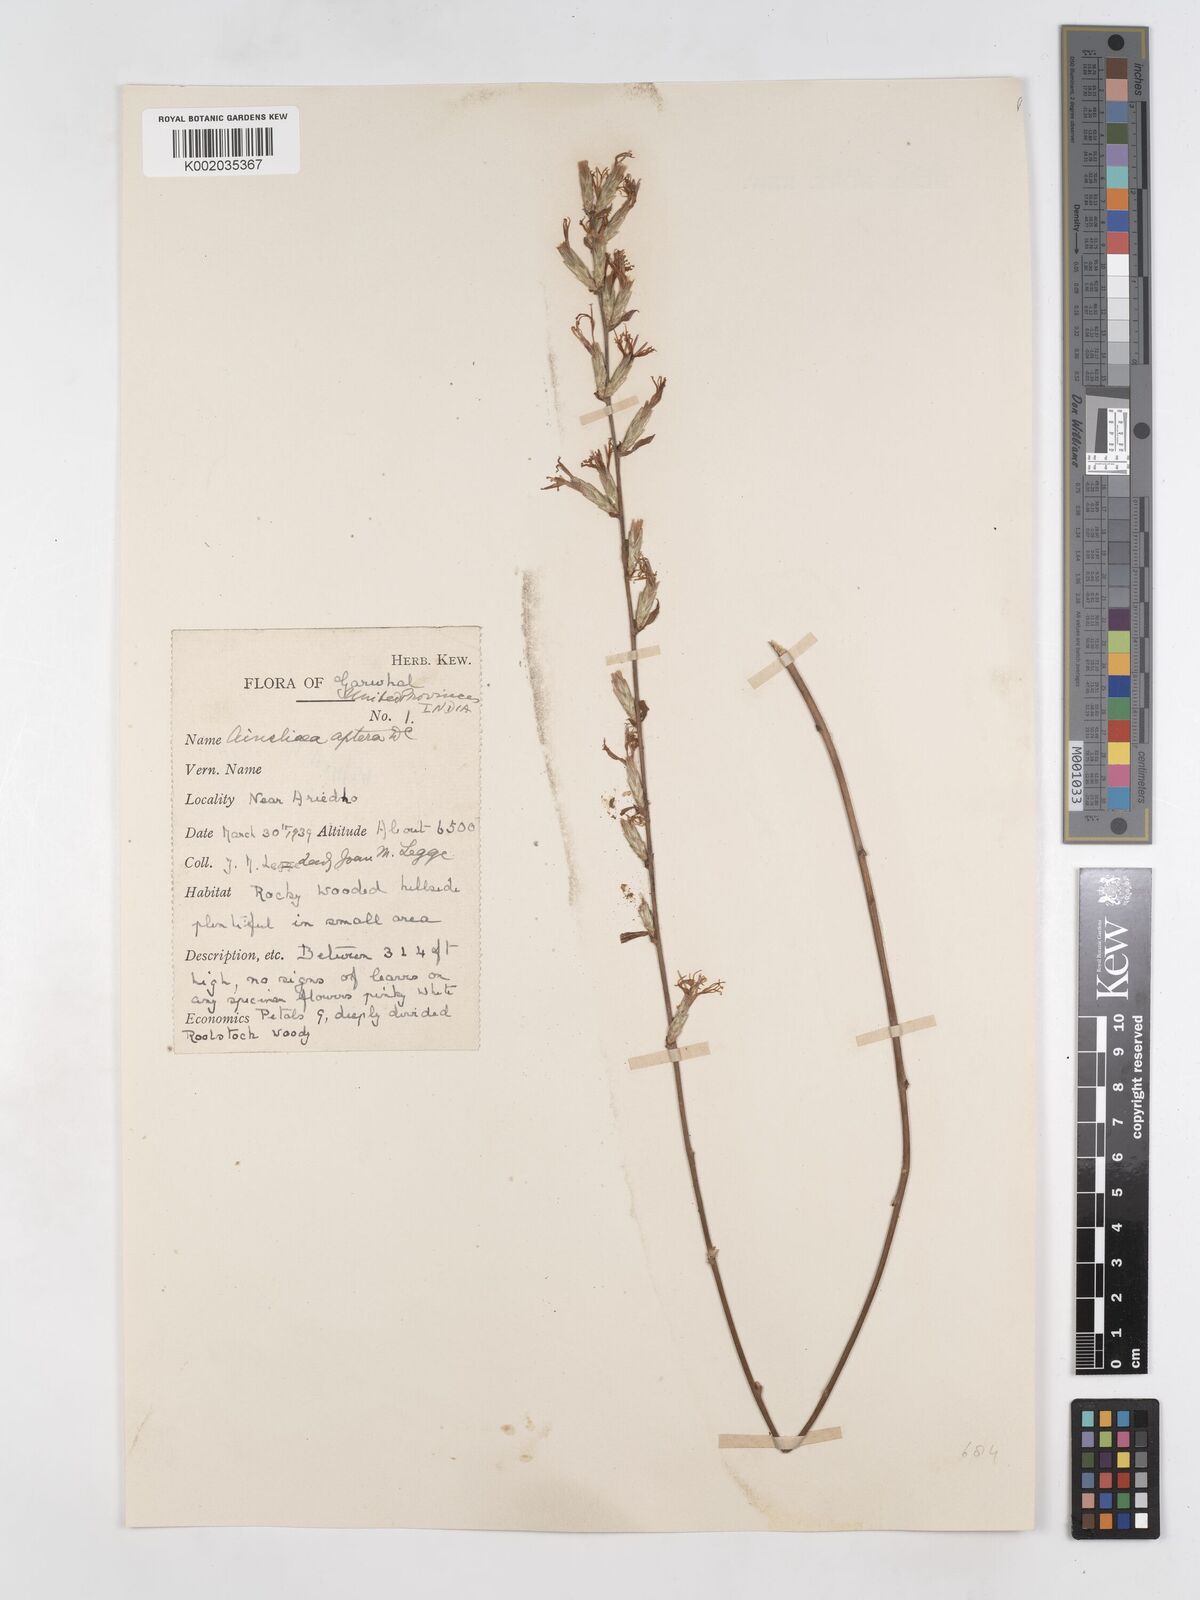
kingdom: Plantae
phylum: Tracheophyta
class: Magnoliopsida
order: Asterales
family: Asteraceae
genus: Ainsliaea
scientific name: Ainsliaea aptera
